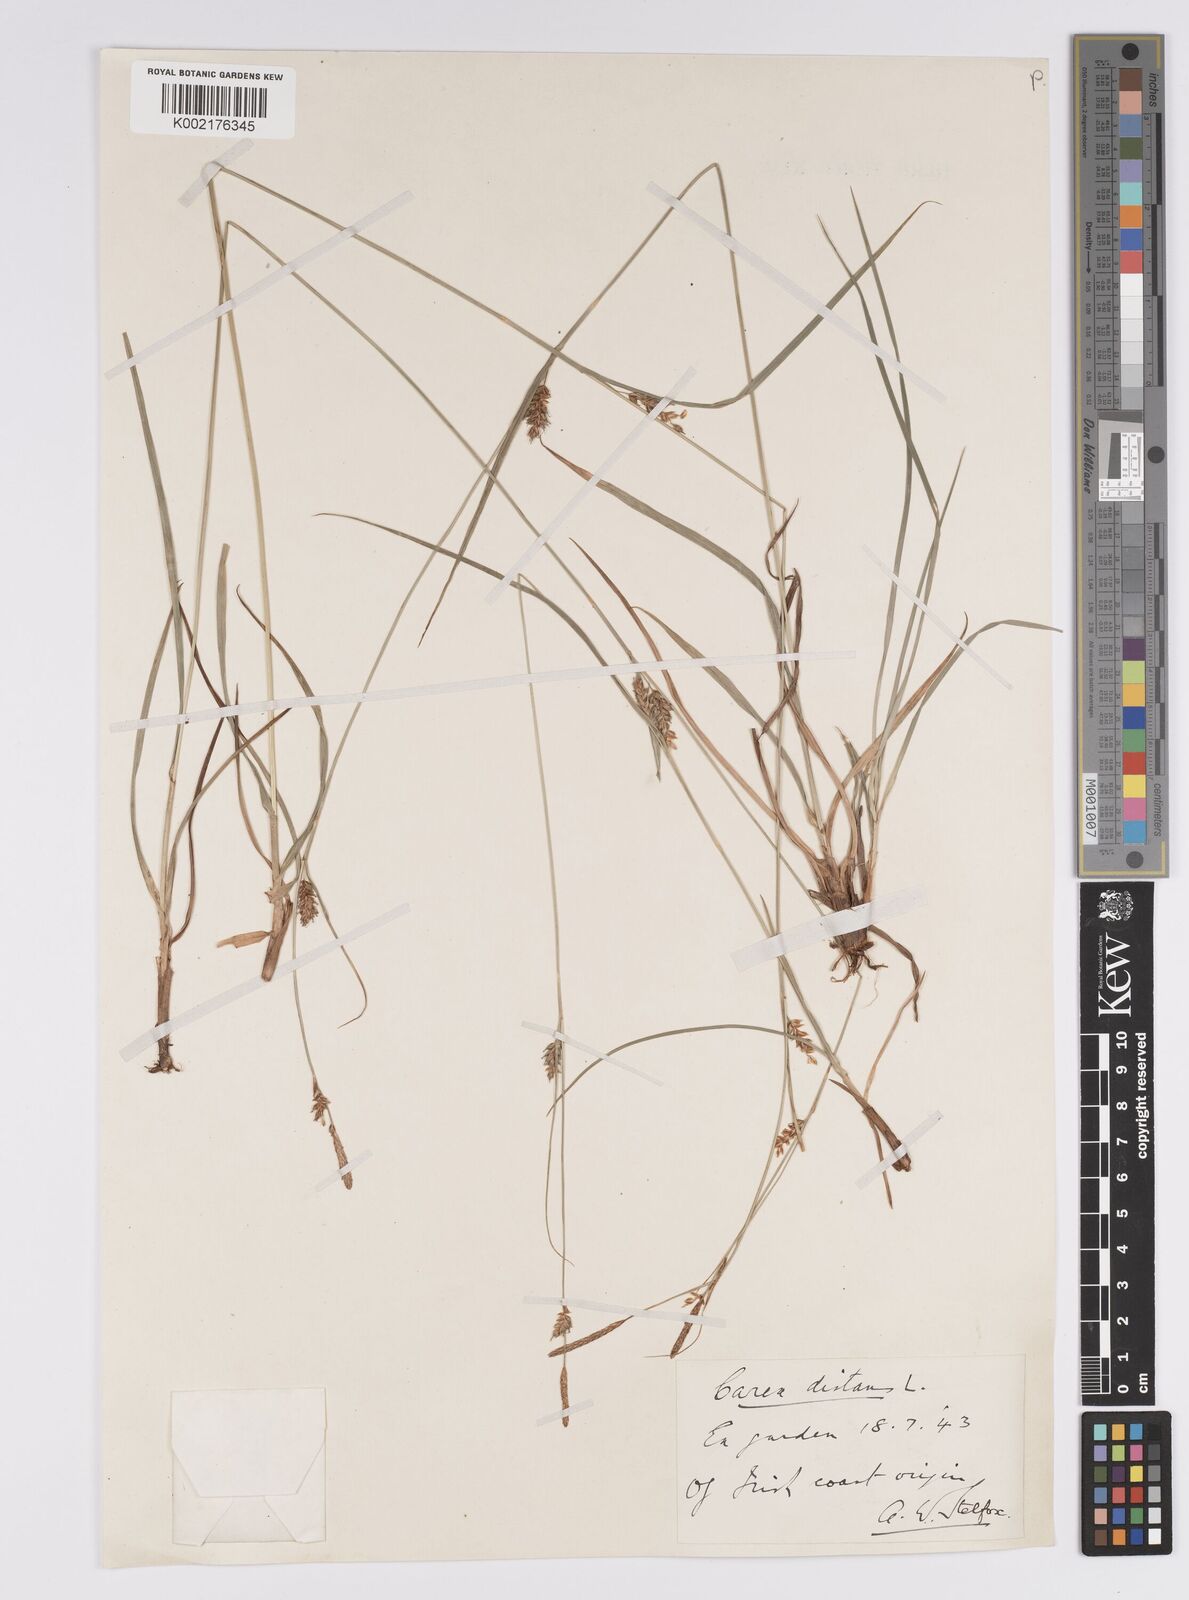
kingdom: Plantae
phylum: Tracheophyta
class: Liliopsida
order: Poales
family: Cyperaceae
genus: Carex
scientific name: Carex distans
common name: Distant sedge
